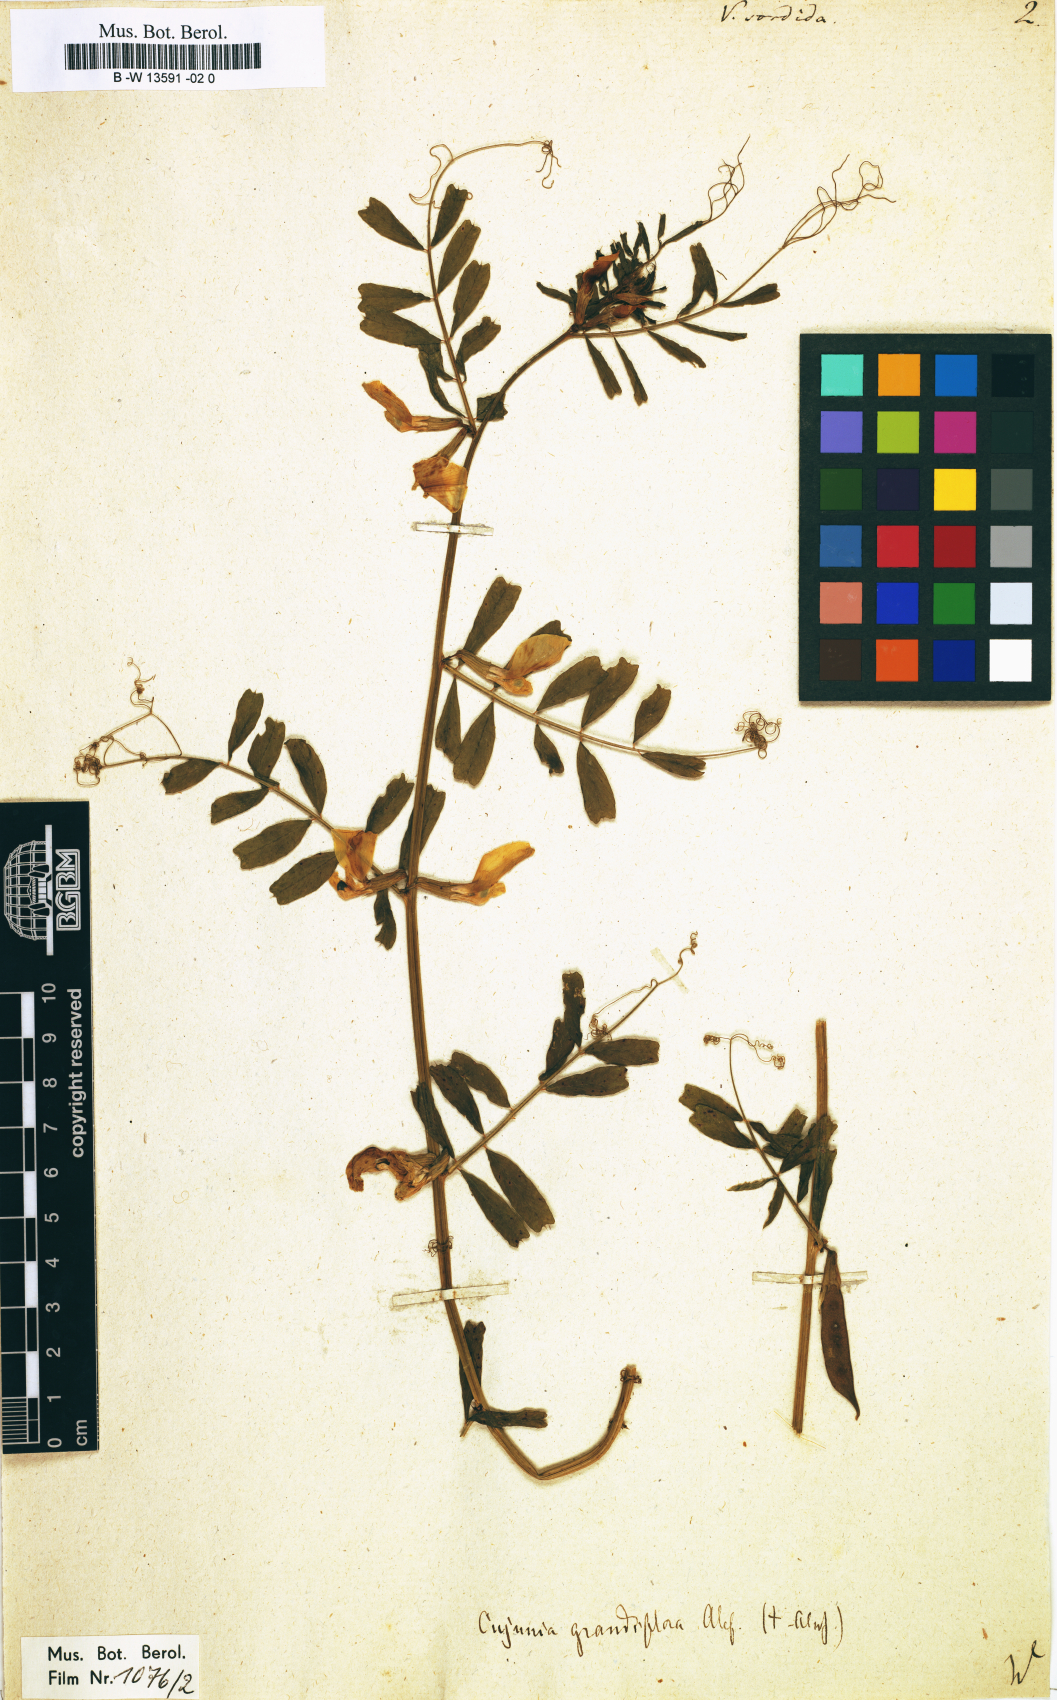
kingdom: Plantae
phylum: Tracheophyta
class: Magnoliopsida
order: Fabales
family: Fabaceae
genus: Vicia
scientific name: Vicia
